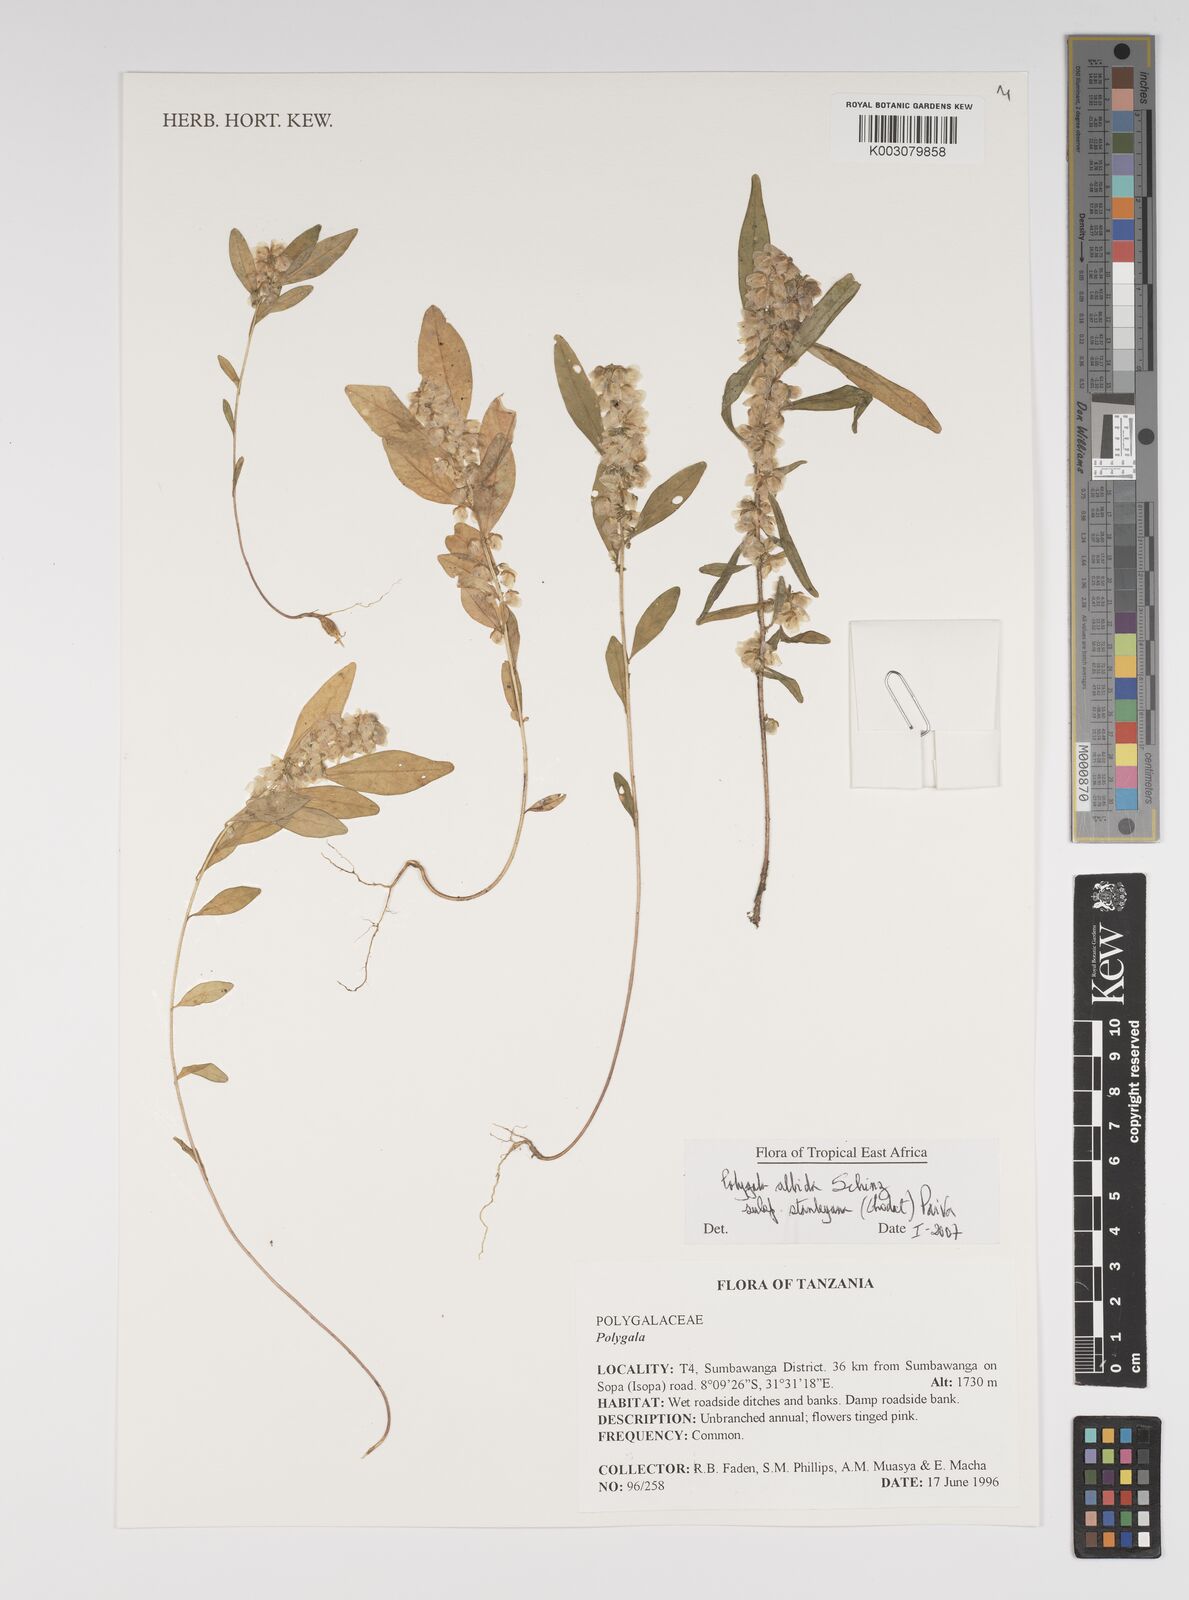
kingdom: Plantae
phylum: Tracheophyta
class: Magnoliopsida
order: Fabales
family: Polygalaceae
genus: Polygala
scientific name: Polygala albida
